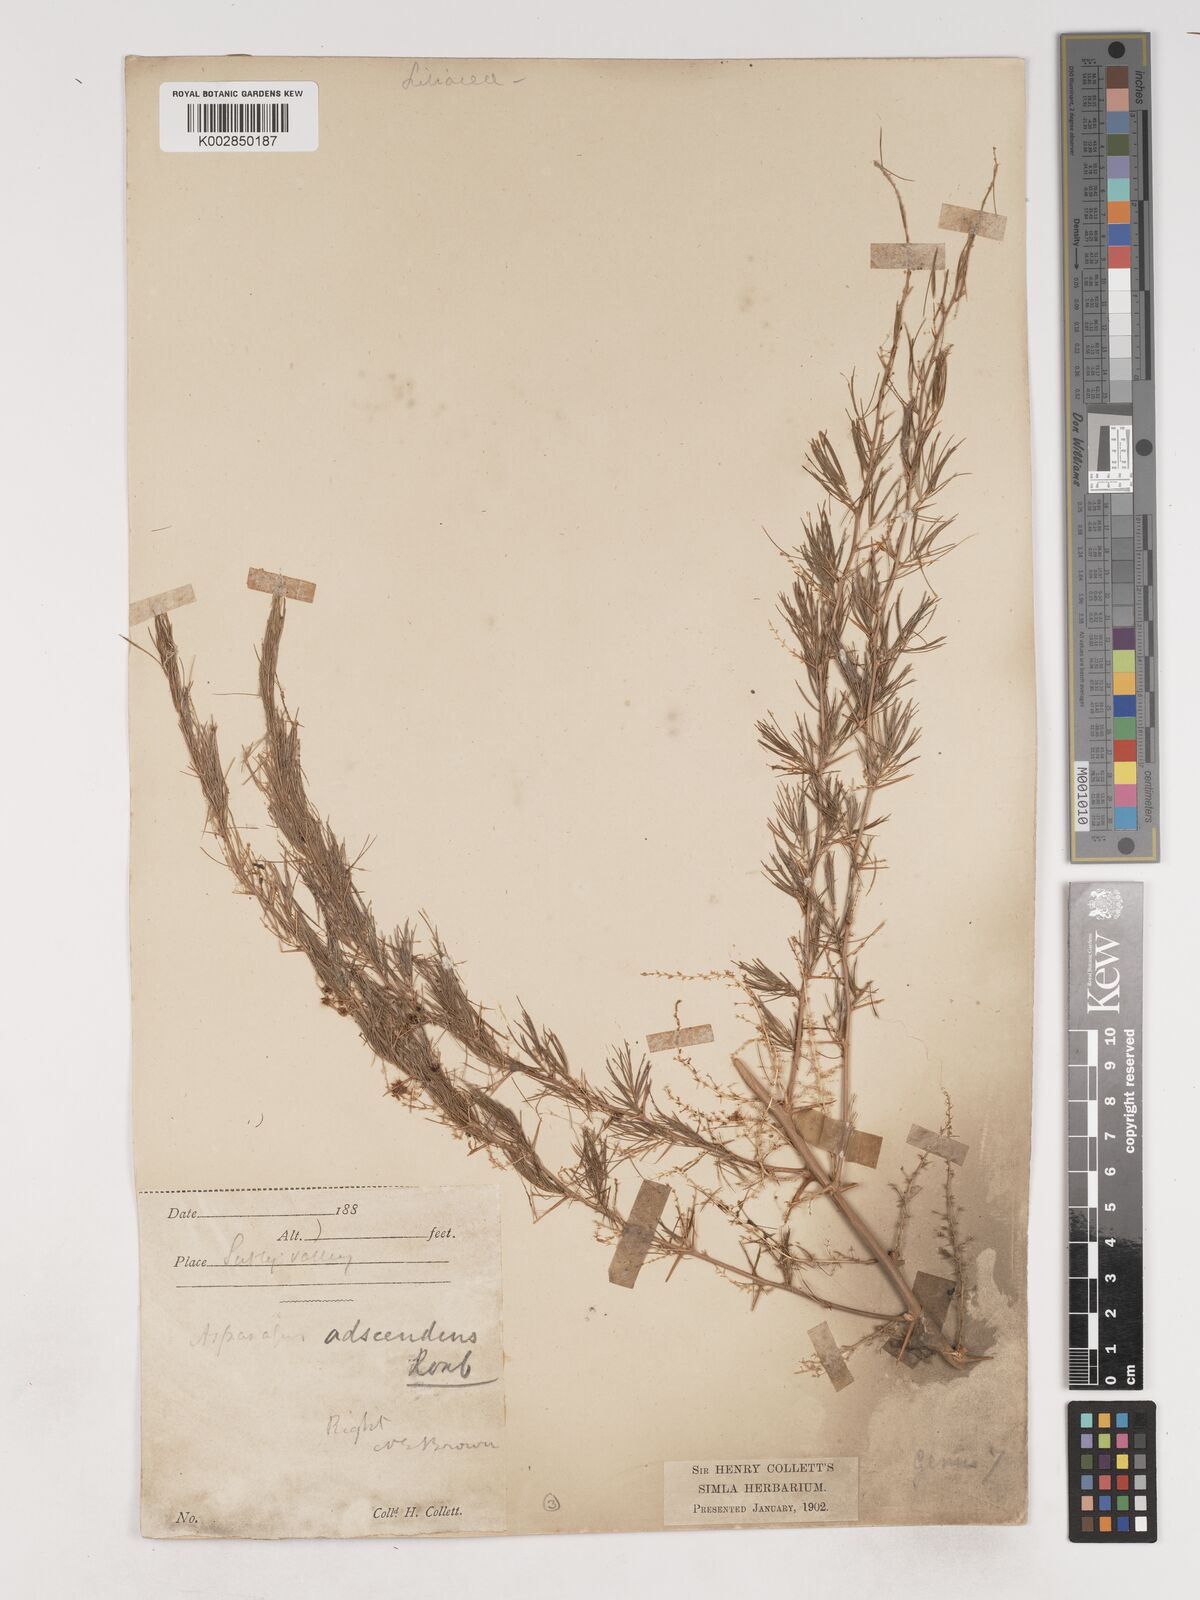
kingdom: Plantae
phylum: Tracheophyta
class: Liliopsida
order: Asparagales
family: Asparagaceae
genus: Asparagus
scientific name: Asparagus adscendens
